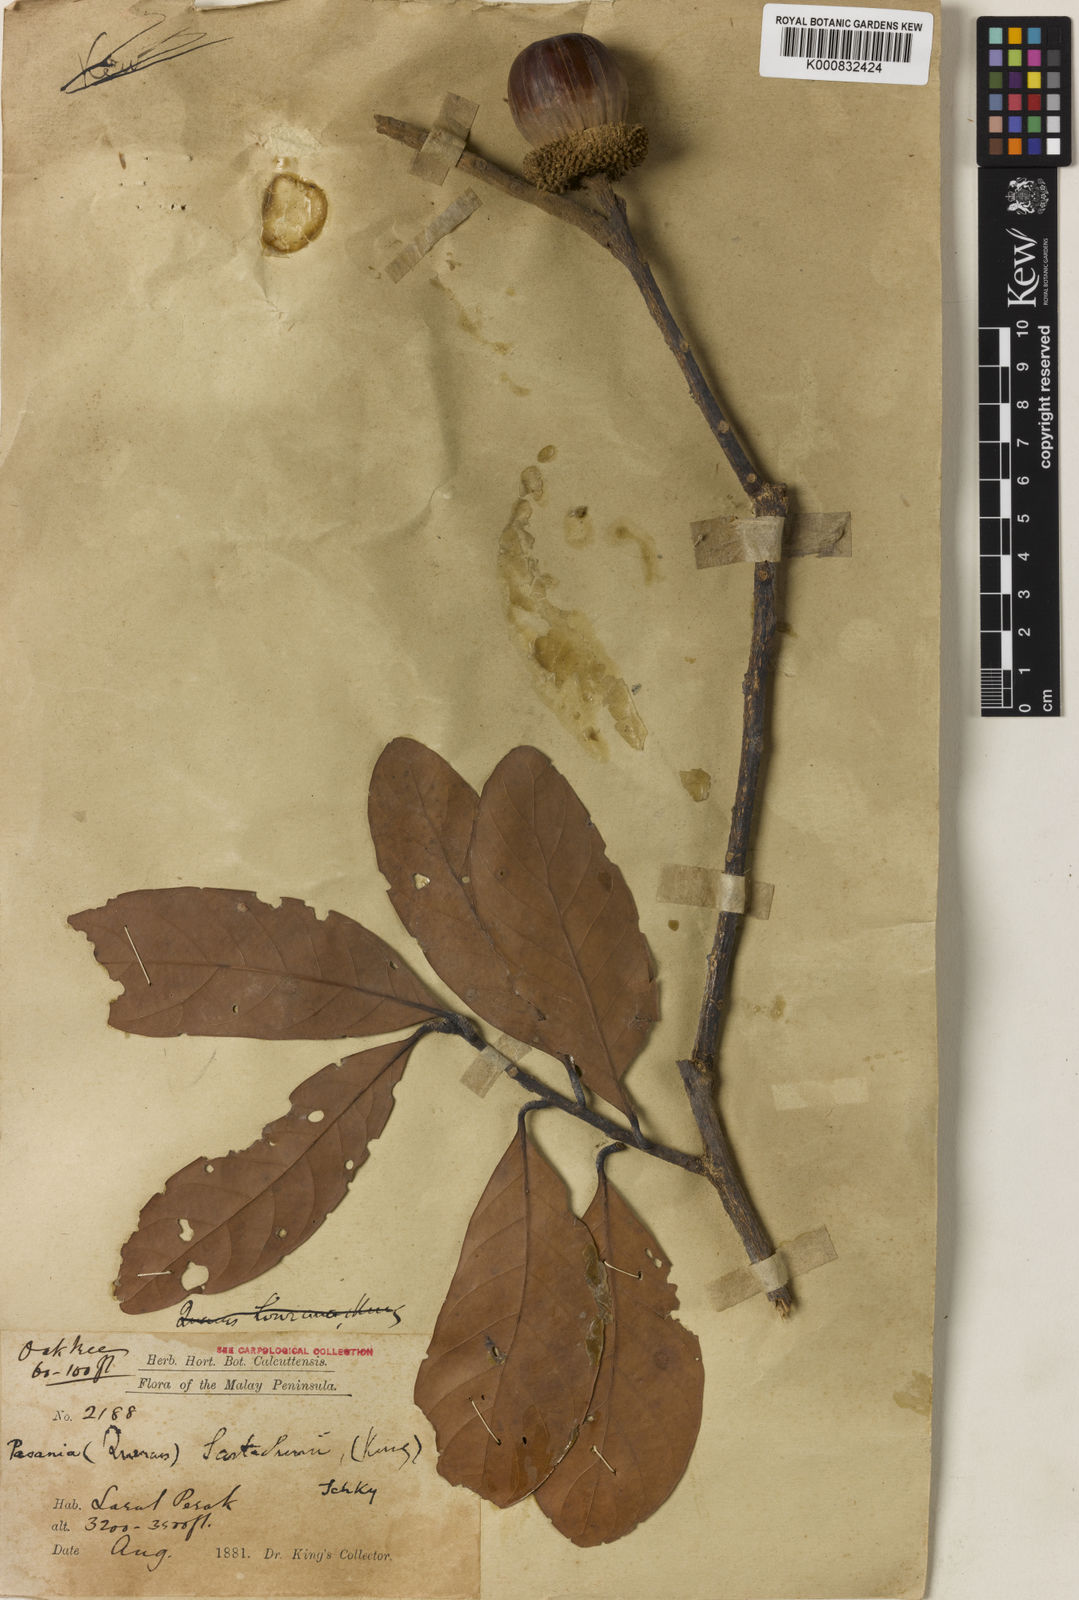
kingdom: Plantae
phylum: Tracheophyta
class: Magnoliopsida
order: Fagales
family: Fagaceae
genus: Lithocarpus
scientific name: Lithocarpus scortechinii
